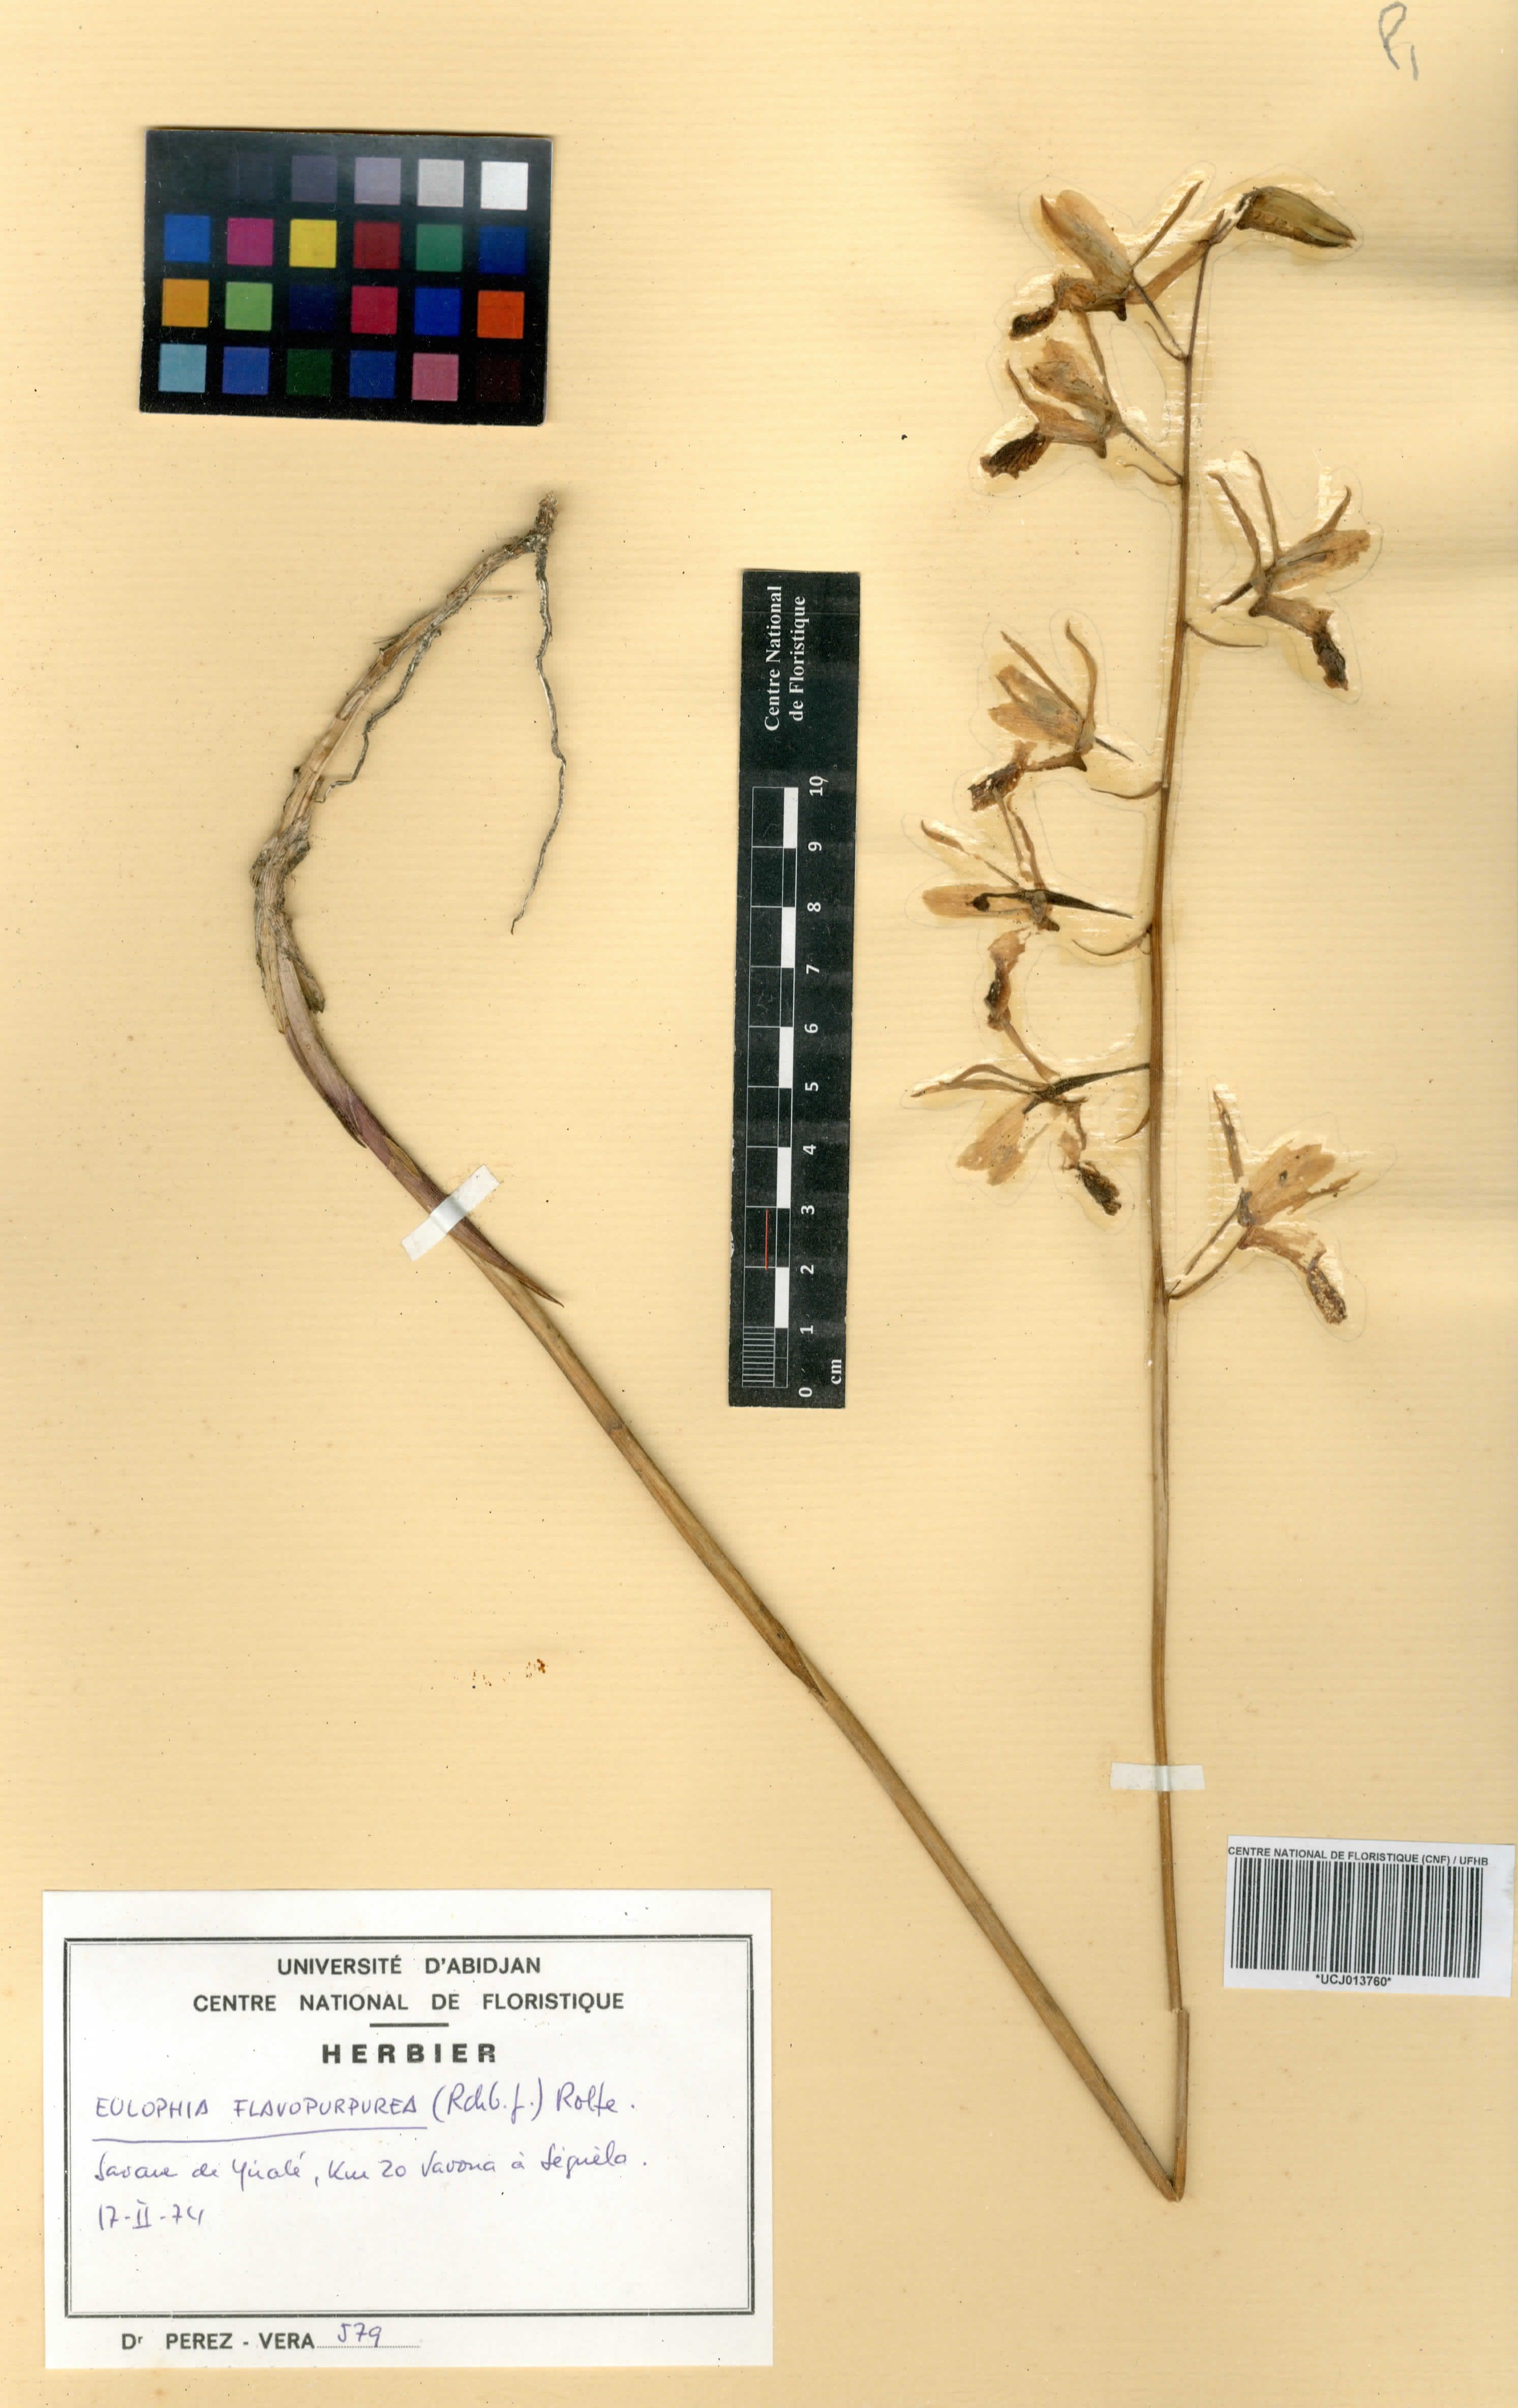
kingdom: Plantae
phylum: Tracheophyta
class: Liliopsida
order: Asparagales
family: Orchidaceae
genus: Eulophia
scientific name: Eulophia flavopurpurea
